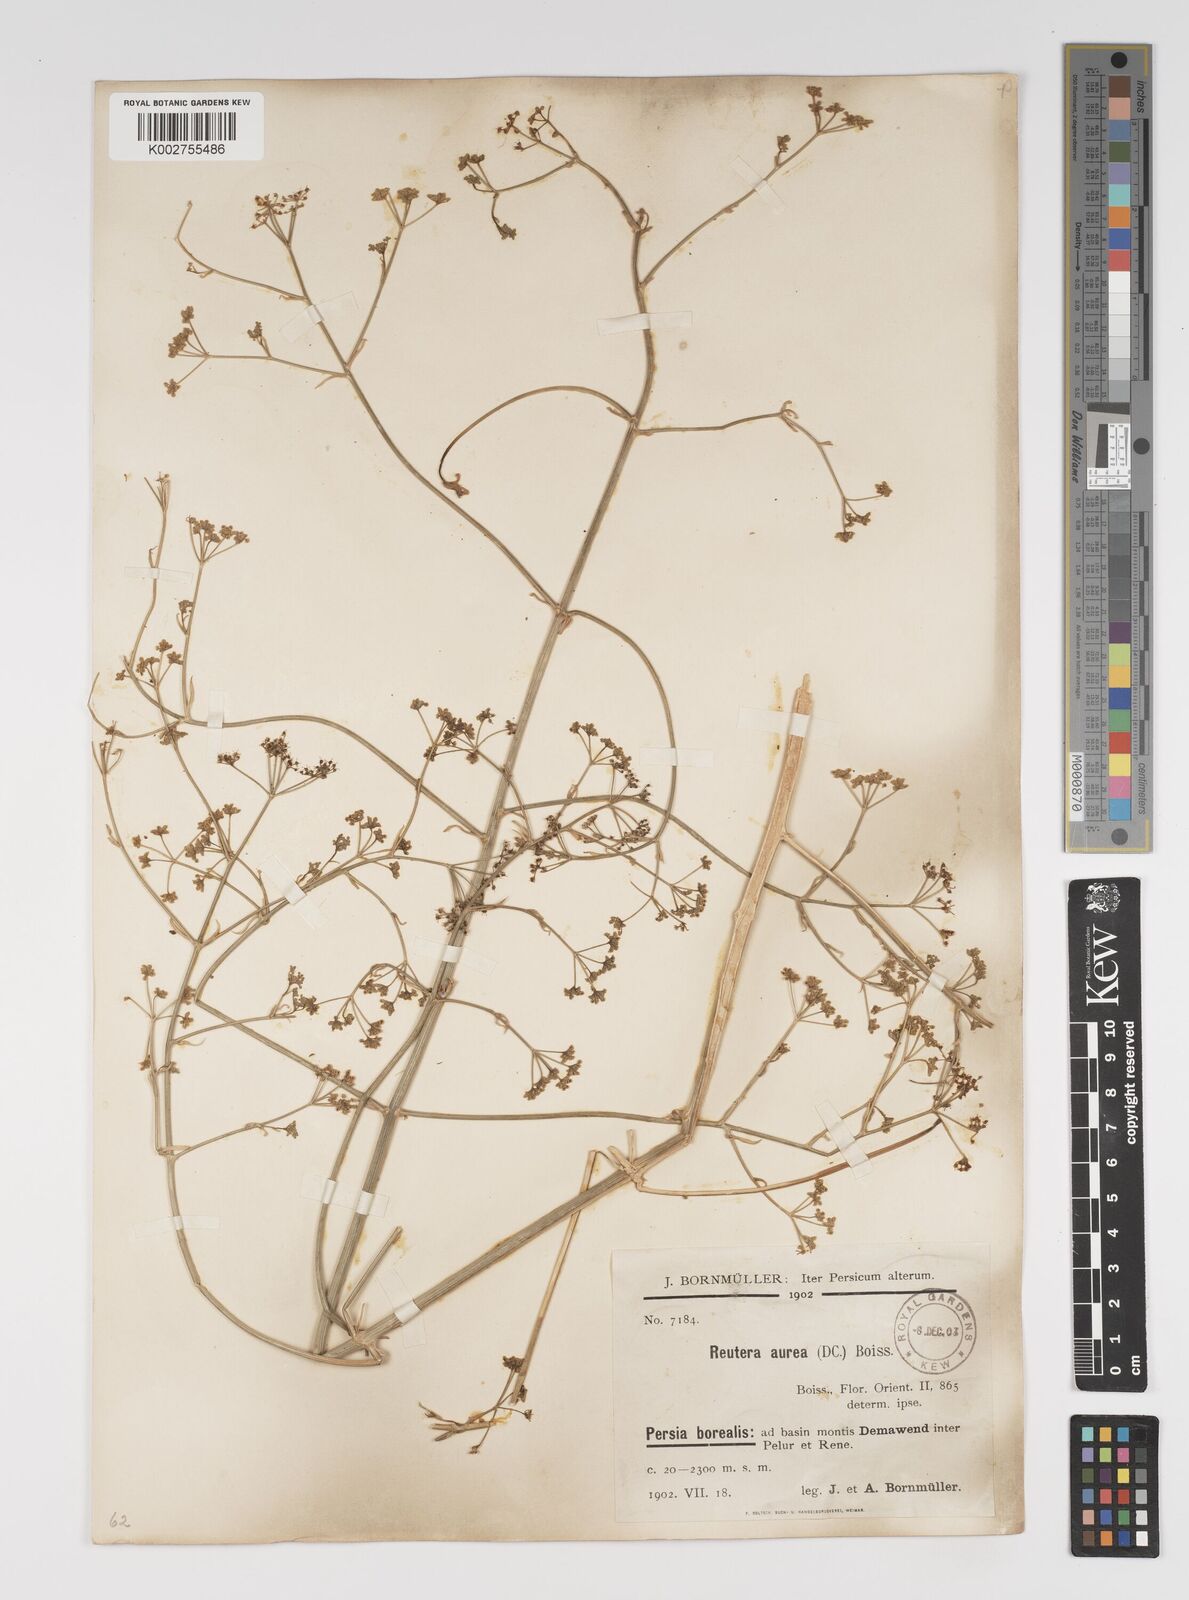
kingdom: Plantae
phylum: Tracheophyta
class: Magnoliopsida
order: Apiales
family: Apiaceae
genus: Pimpinella
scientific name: Pimpinella aurea
